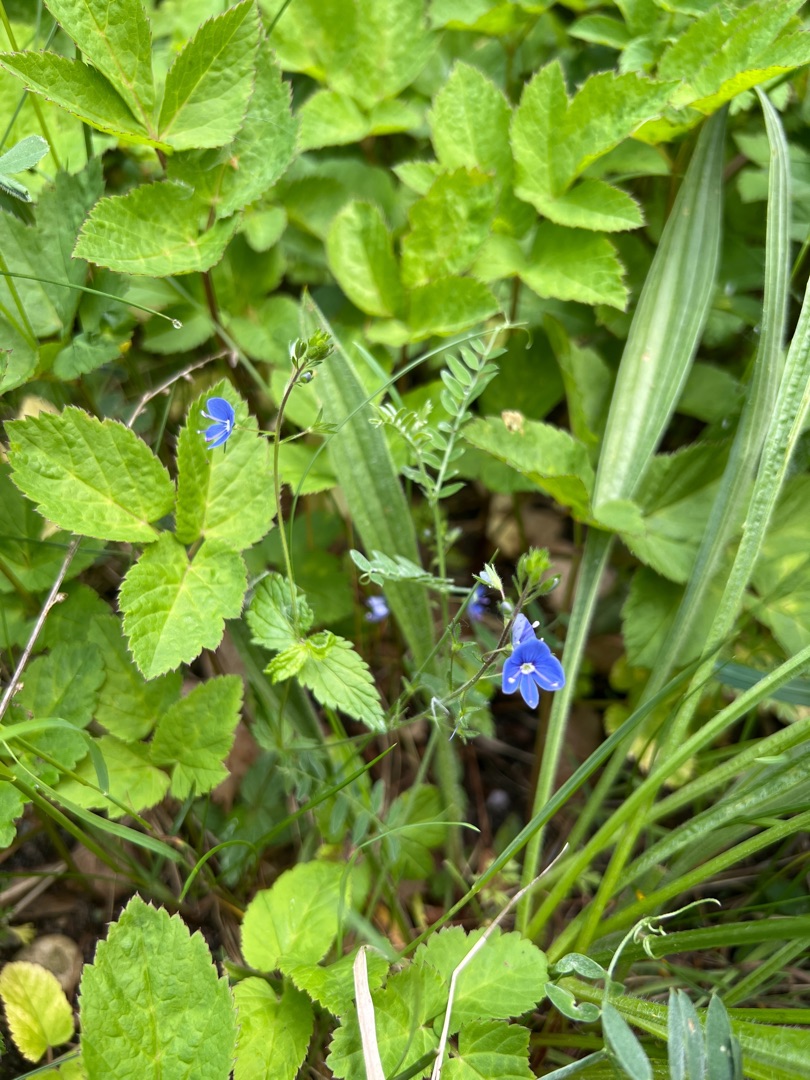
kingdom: Plantae
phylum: Tracheophyta
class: Magnoliopsida
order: Lamiales
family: Plantaginaceae
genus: Veronica
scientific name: Veronica chamaedrys
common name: Tveskægget ærenpris
